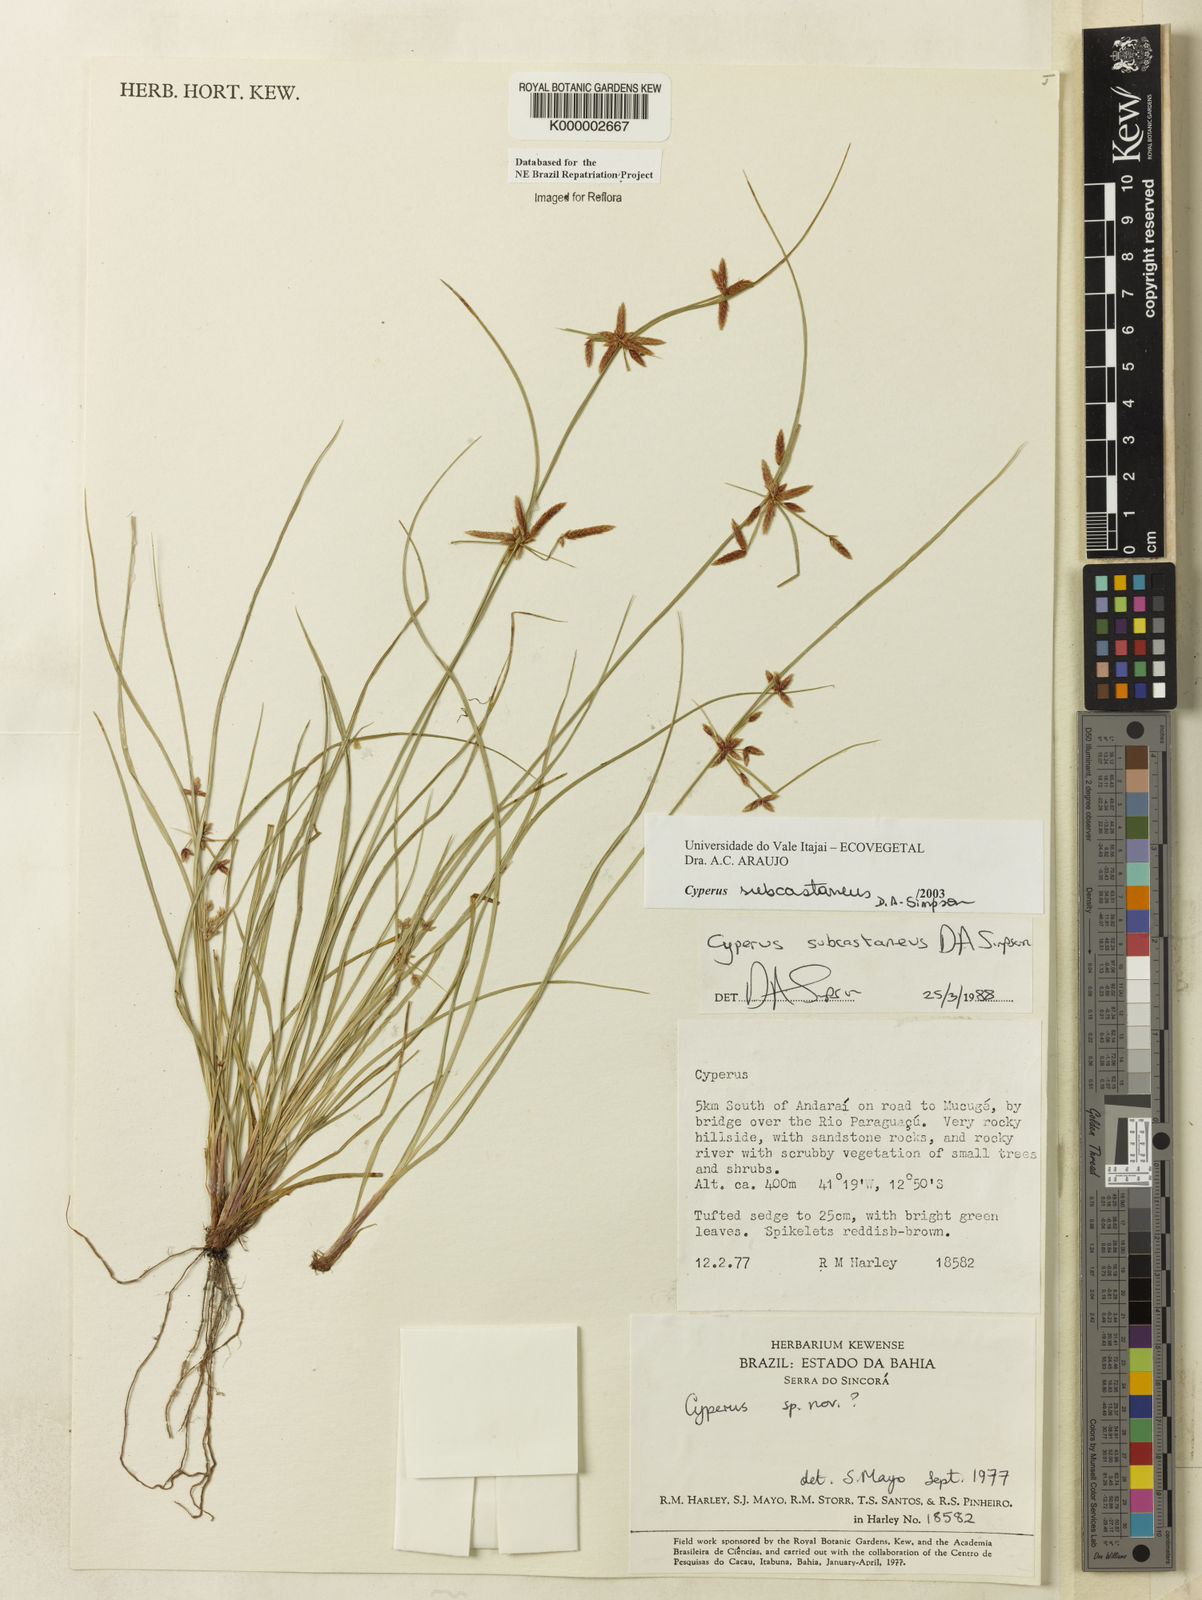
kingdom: Plantae
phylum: Tracheophyta
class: Liliopsida
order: Poales
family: Cyperaceae
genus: Cyperus
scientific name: Cyperus subcastaneus
